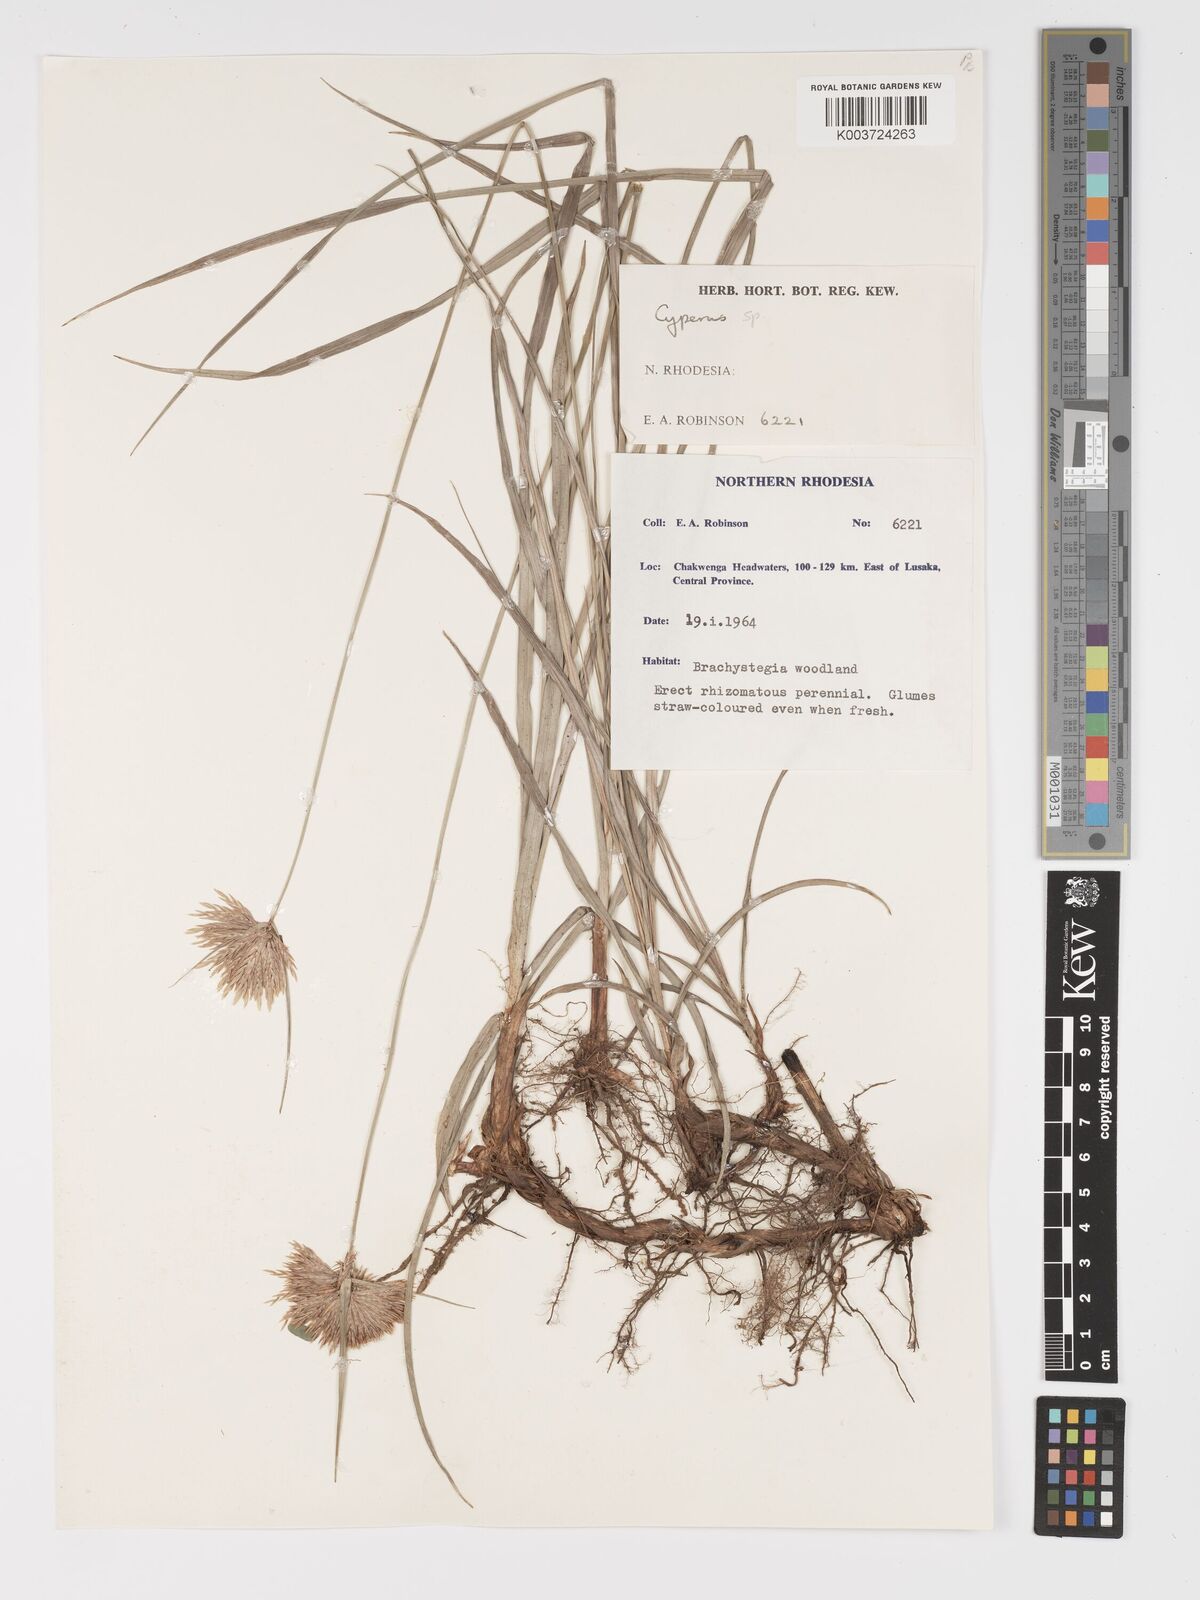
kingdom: Plantae
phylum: Tracheophyta
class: Liliopsida
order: Poales
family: Cyperaceae
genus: Cyperus
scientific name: Cyperus
